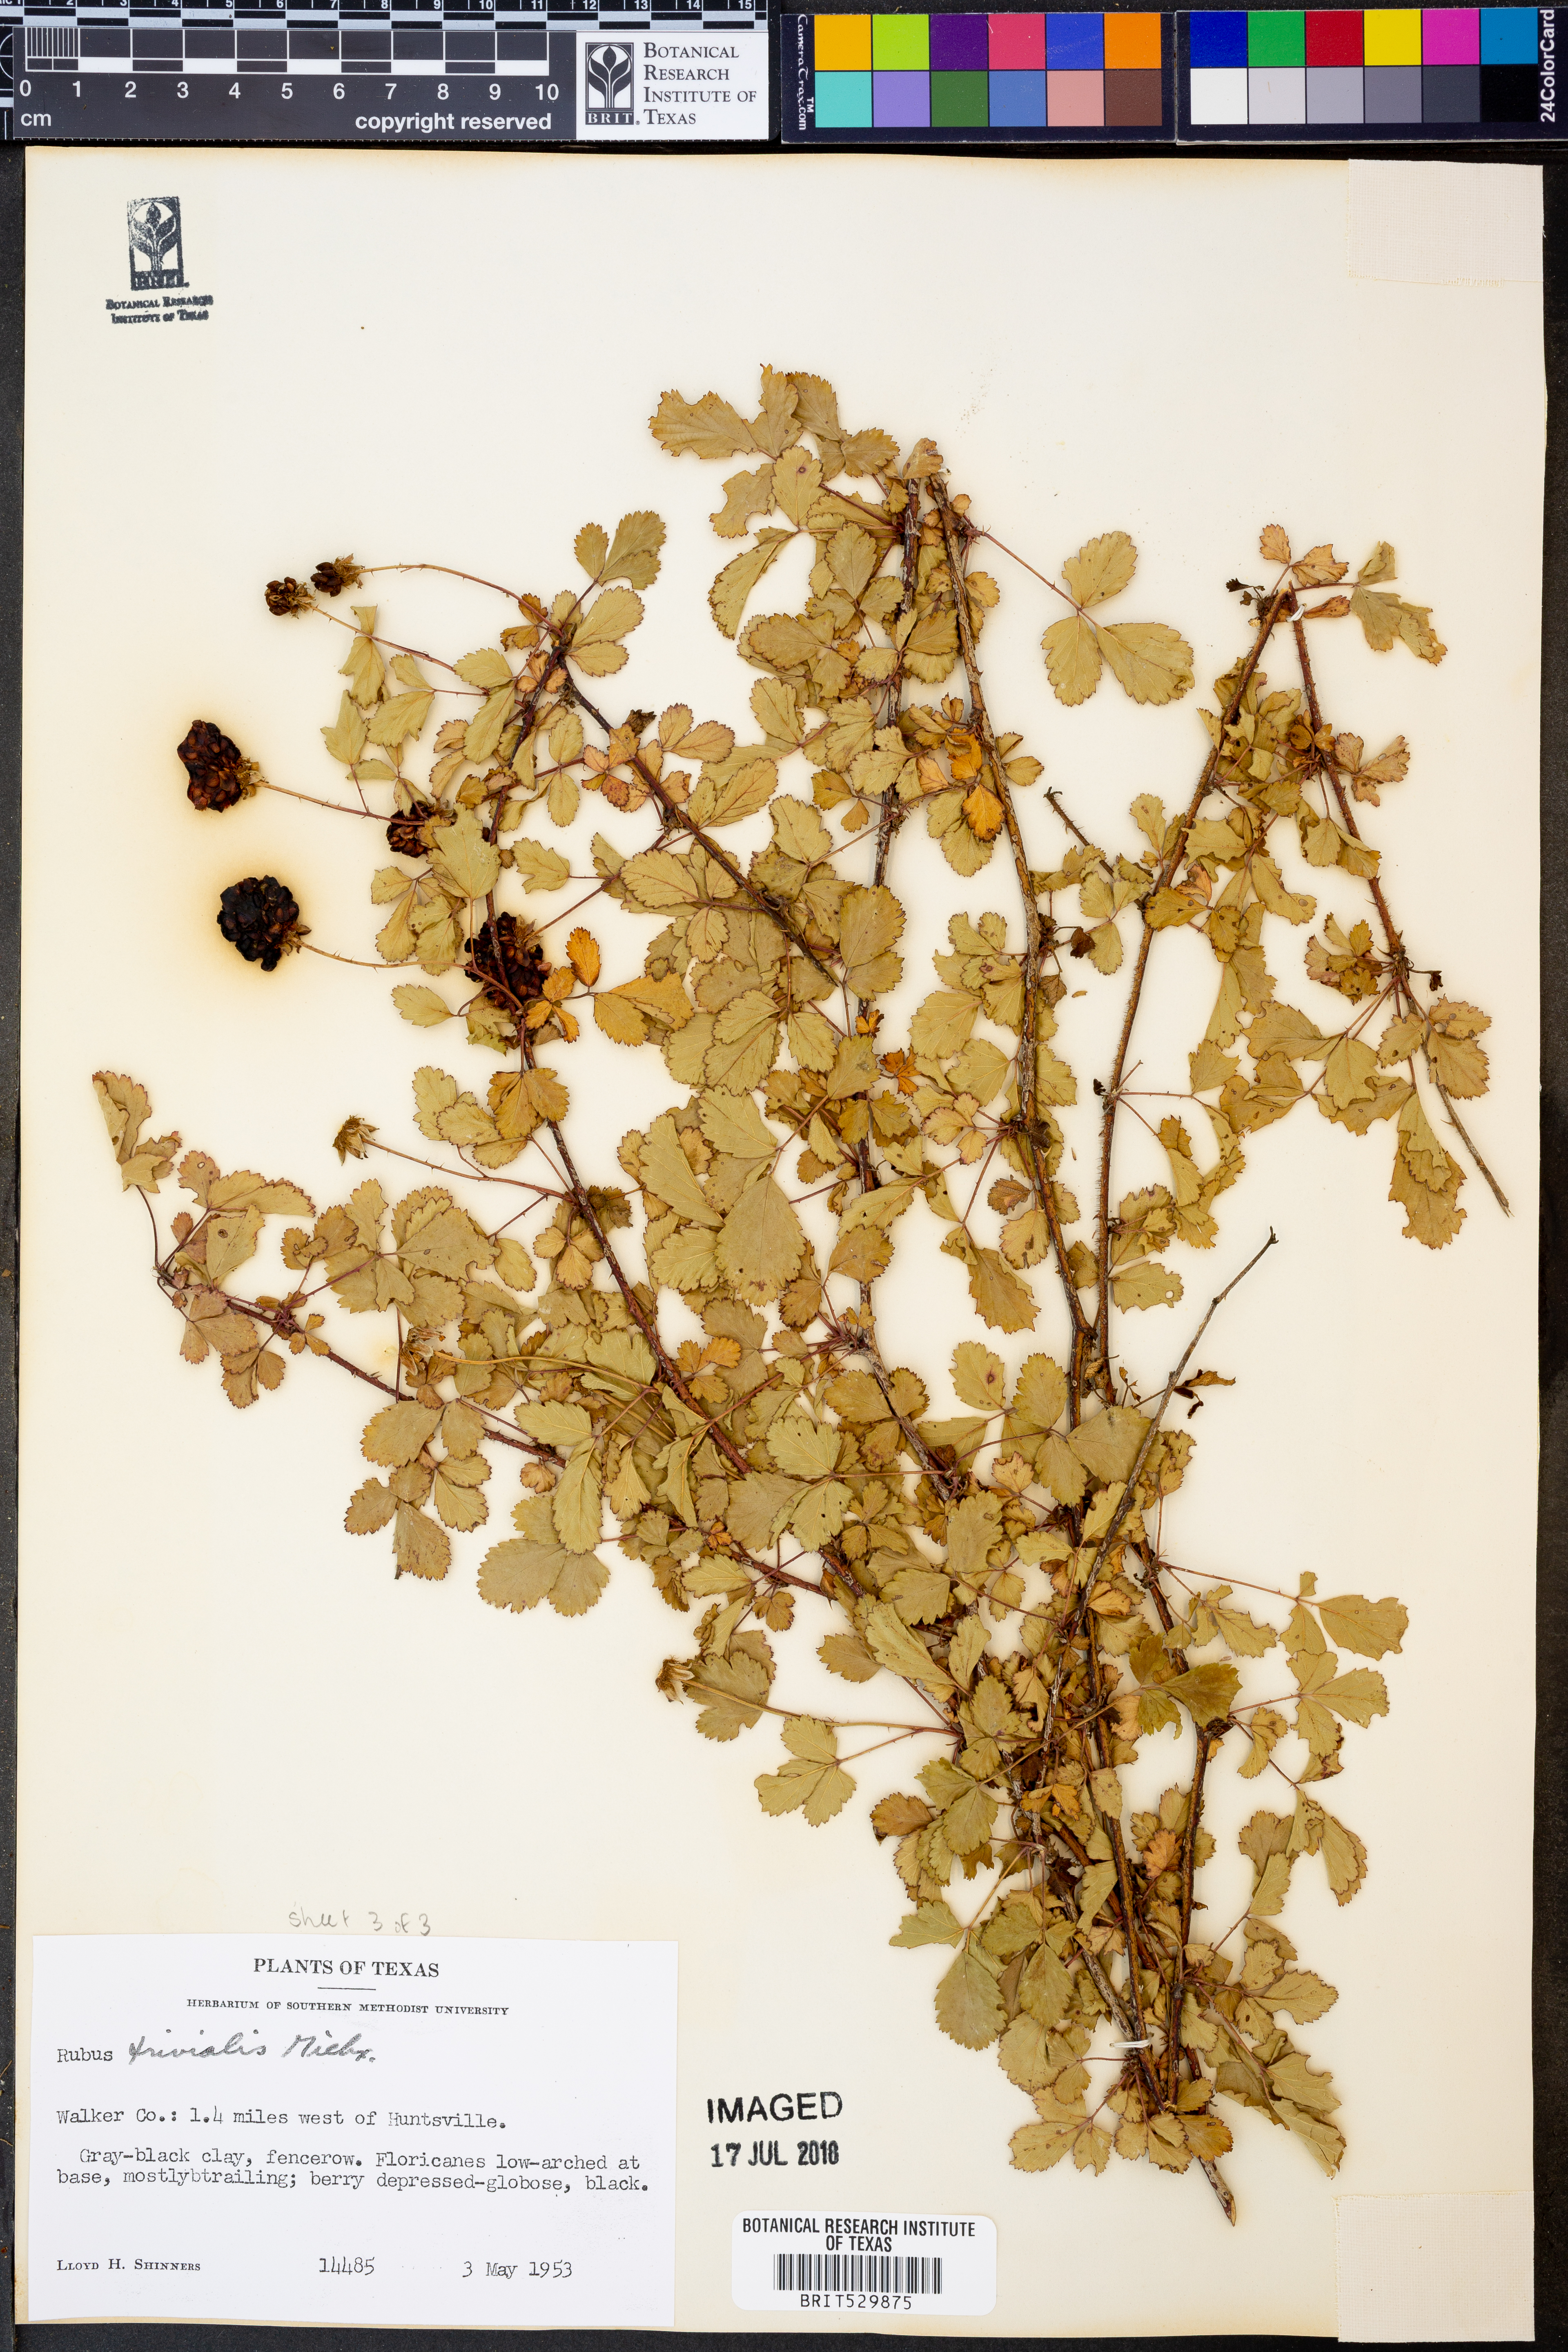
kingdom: Plantae
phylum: Tracheophyta
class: Magnoliopsida
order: Rosales
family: Rosaceae
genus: Rubus
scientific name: Rubus trivialis
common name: Southern dewberry
